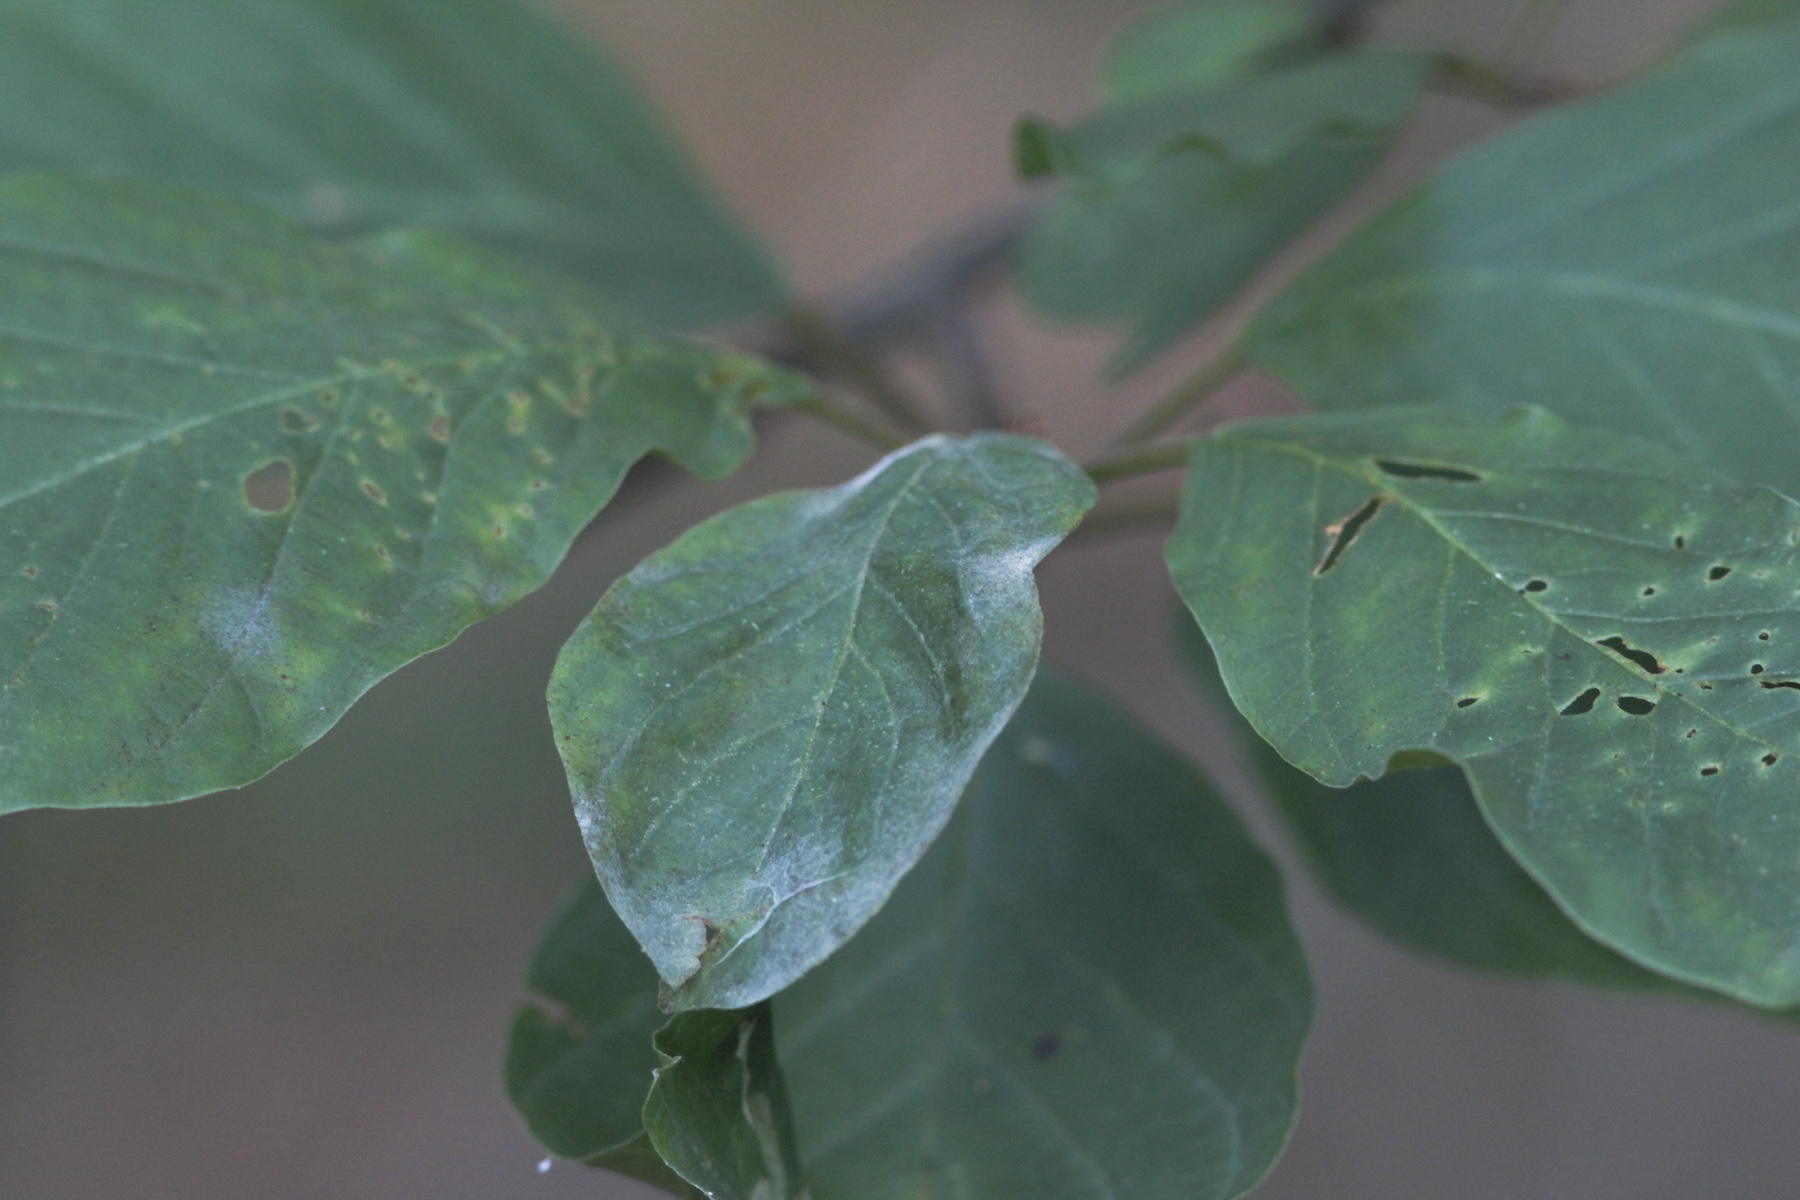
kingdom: Fungi
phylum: Ascomycota
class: Leotiomycetes
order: Helotiales
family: Erysiphaceae
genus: Erysiphe
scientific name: Erysiphe divaricata
